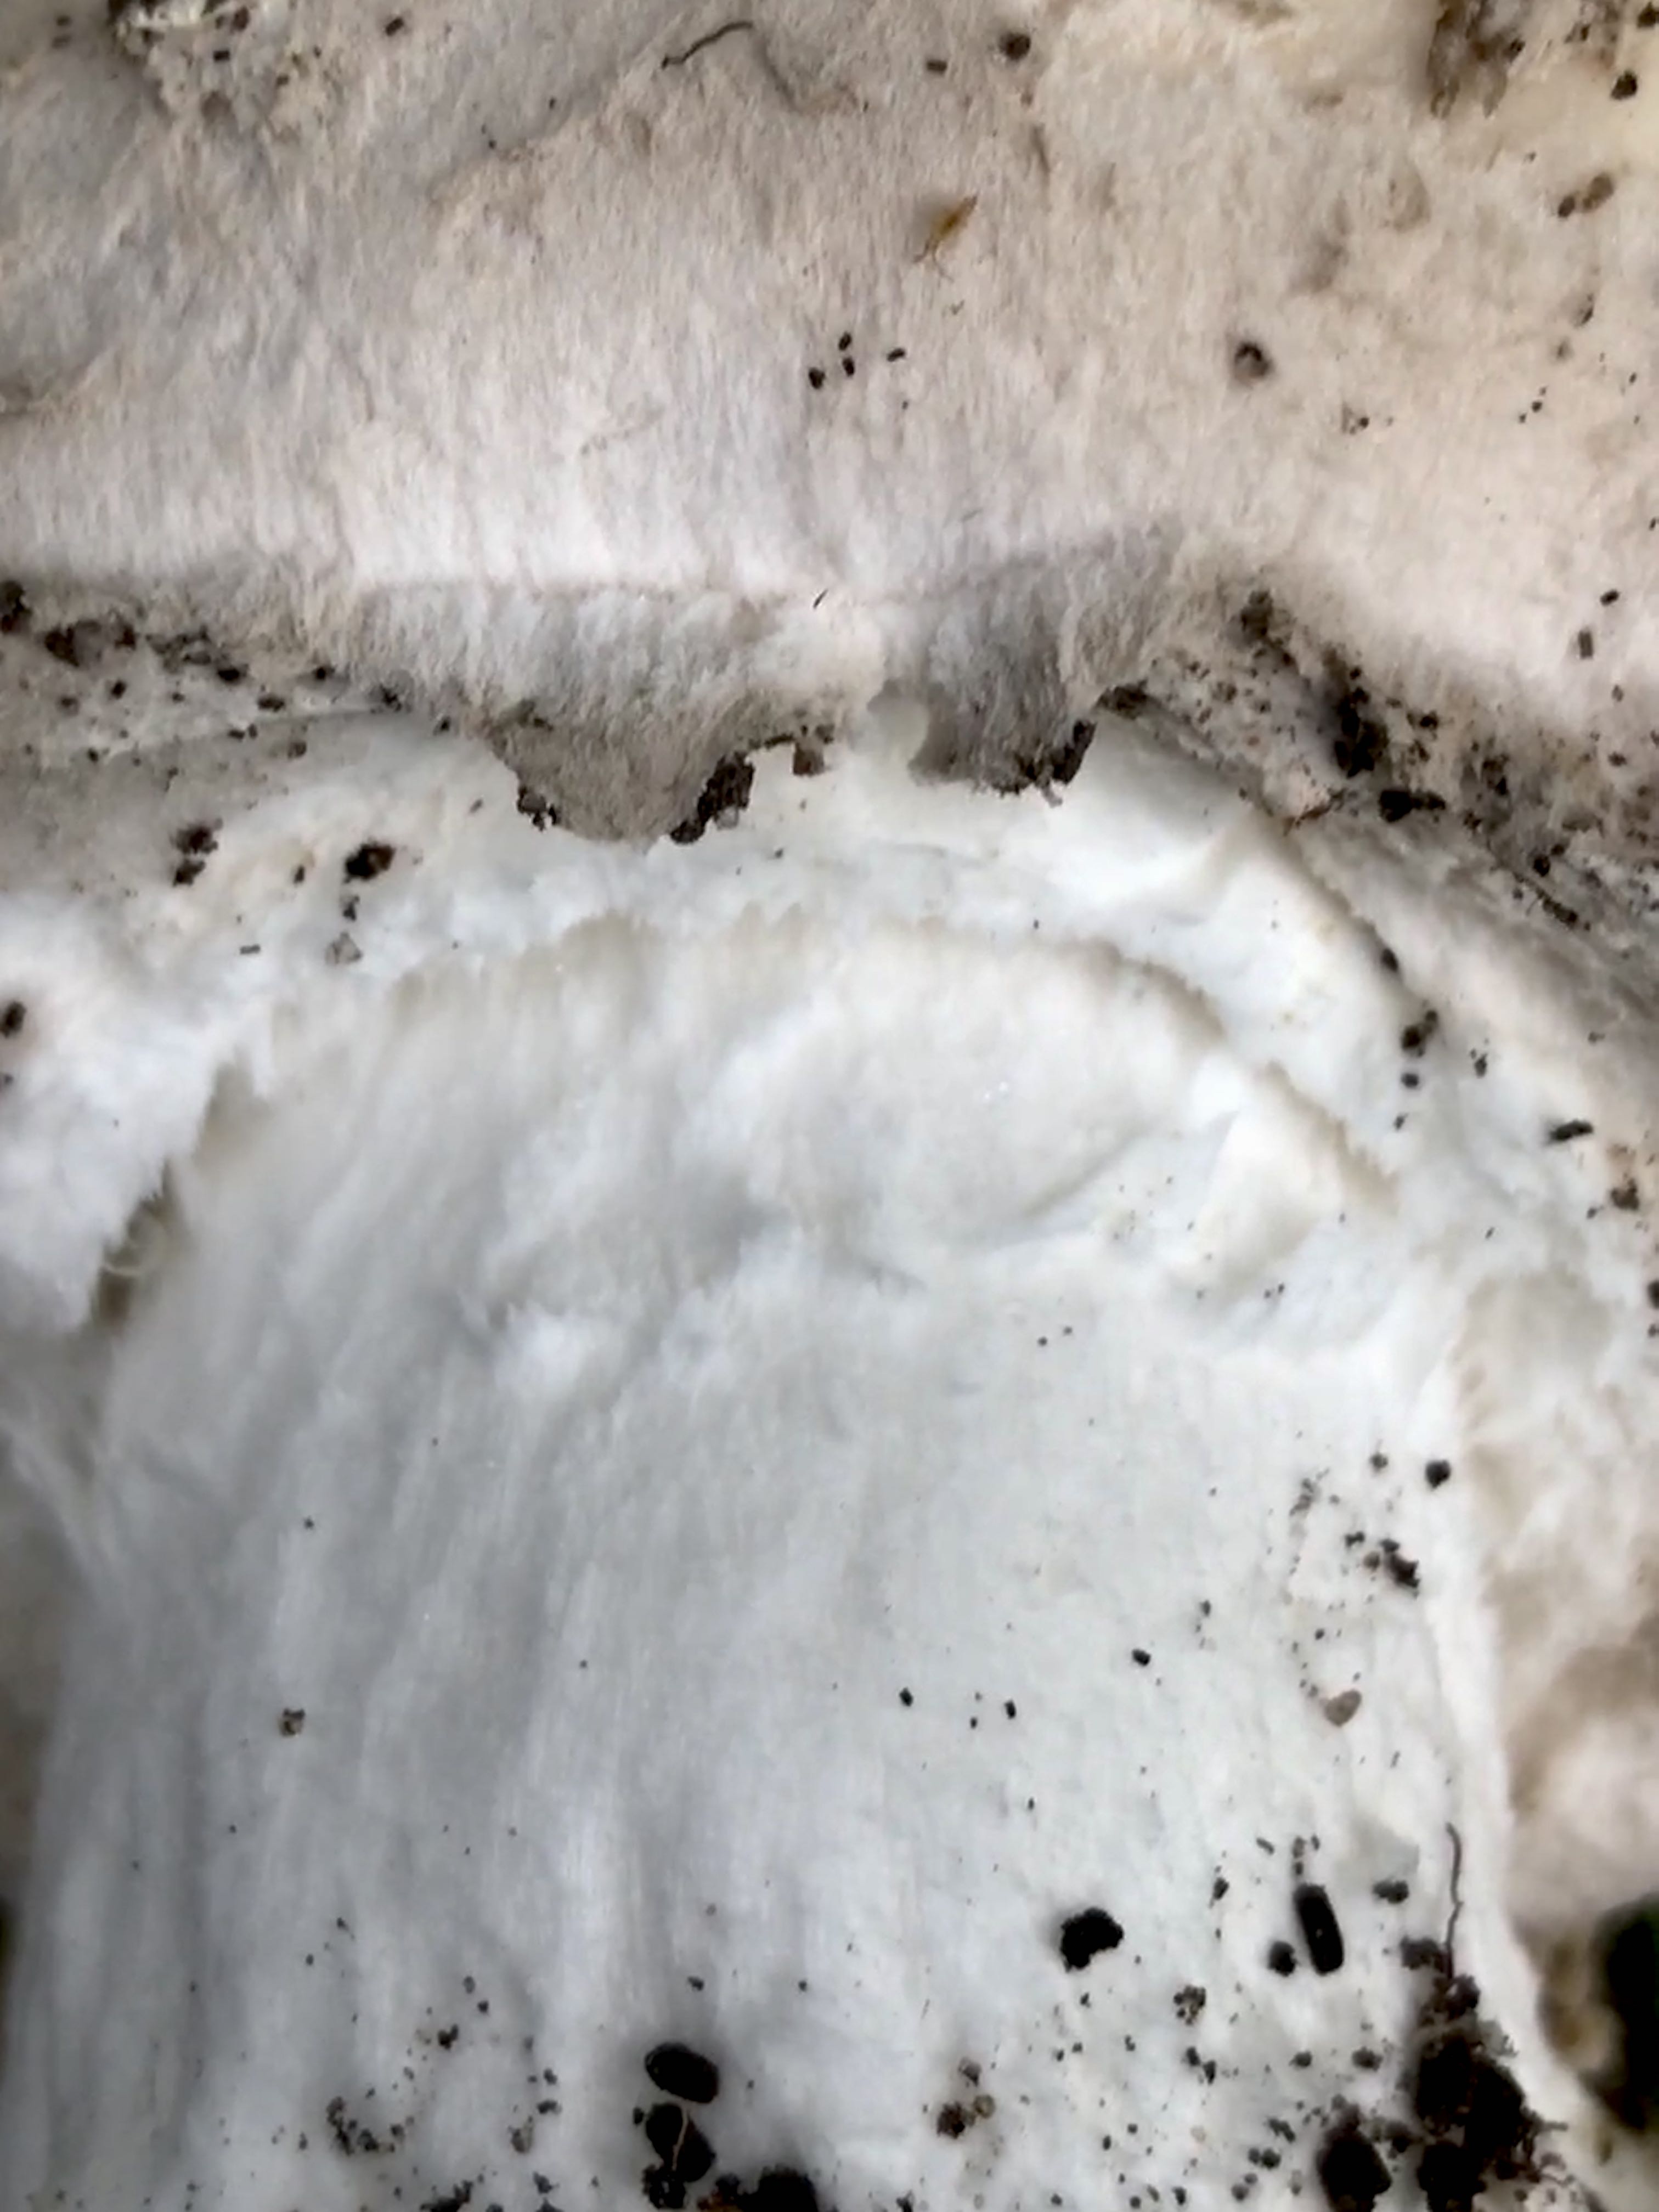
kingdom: Fungi
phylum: Basidiomycota
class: Agaricomycetes
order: Agaricales
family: Amanitaceae
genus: Amanita
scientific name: Amanita
